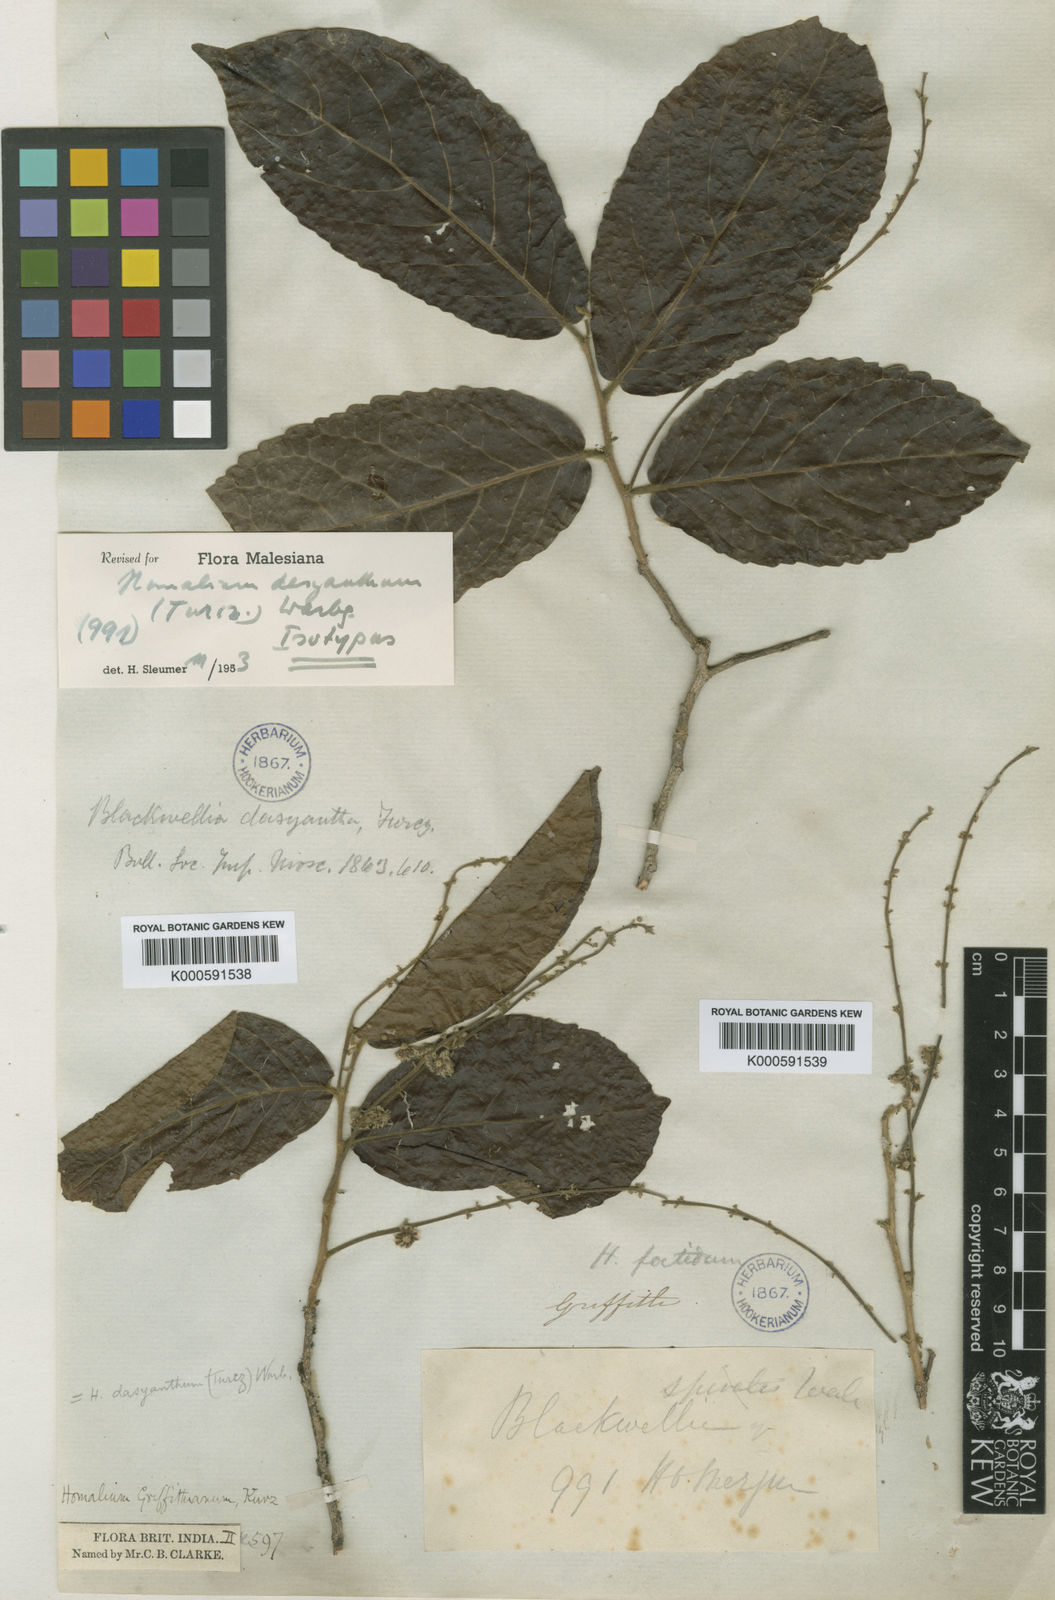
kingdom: Plantae
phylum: Tracheophyta
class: Magnoliopsida
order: Malpighiales
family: Salicaceae
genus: Homalium
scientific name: Homalium dasyanthum
